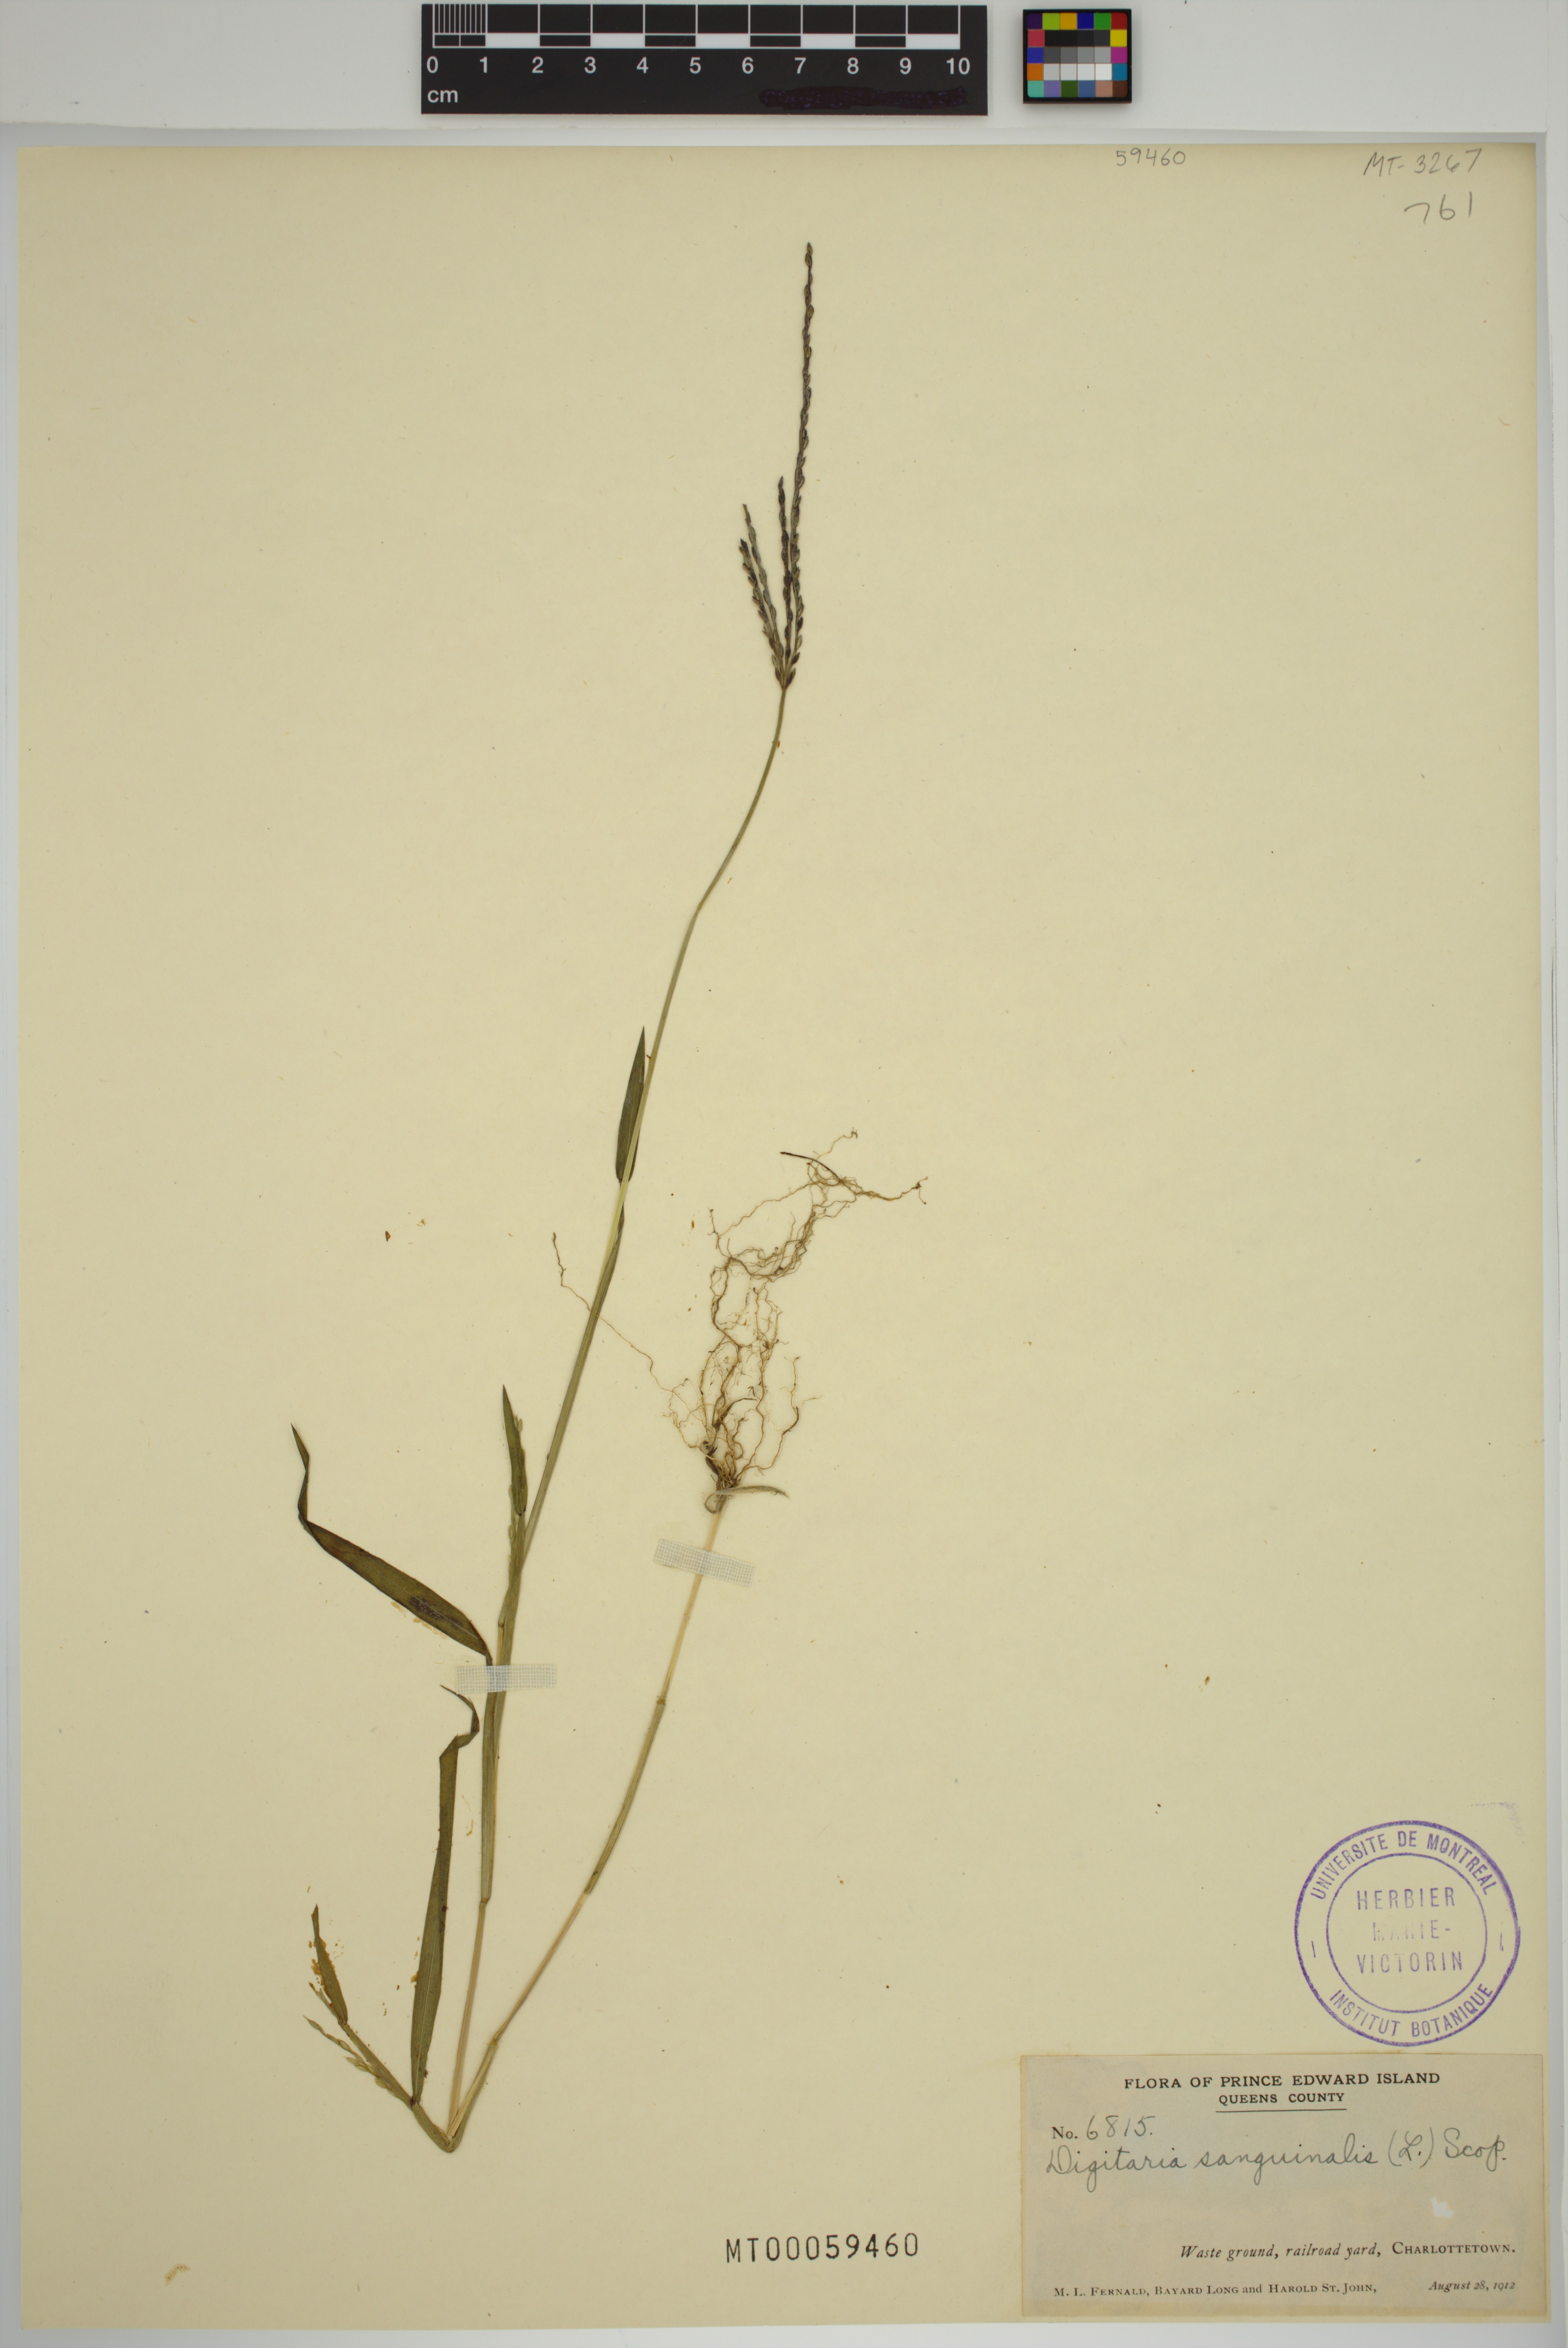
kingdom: Plantae
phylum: Tracheophyta
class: Liliopsida
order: Poales
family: Poaceae
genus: Digitaria
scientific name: Digitaria sanguinalis
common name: Hairy crabgrass
